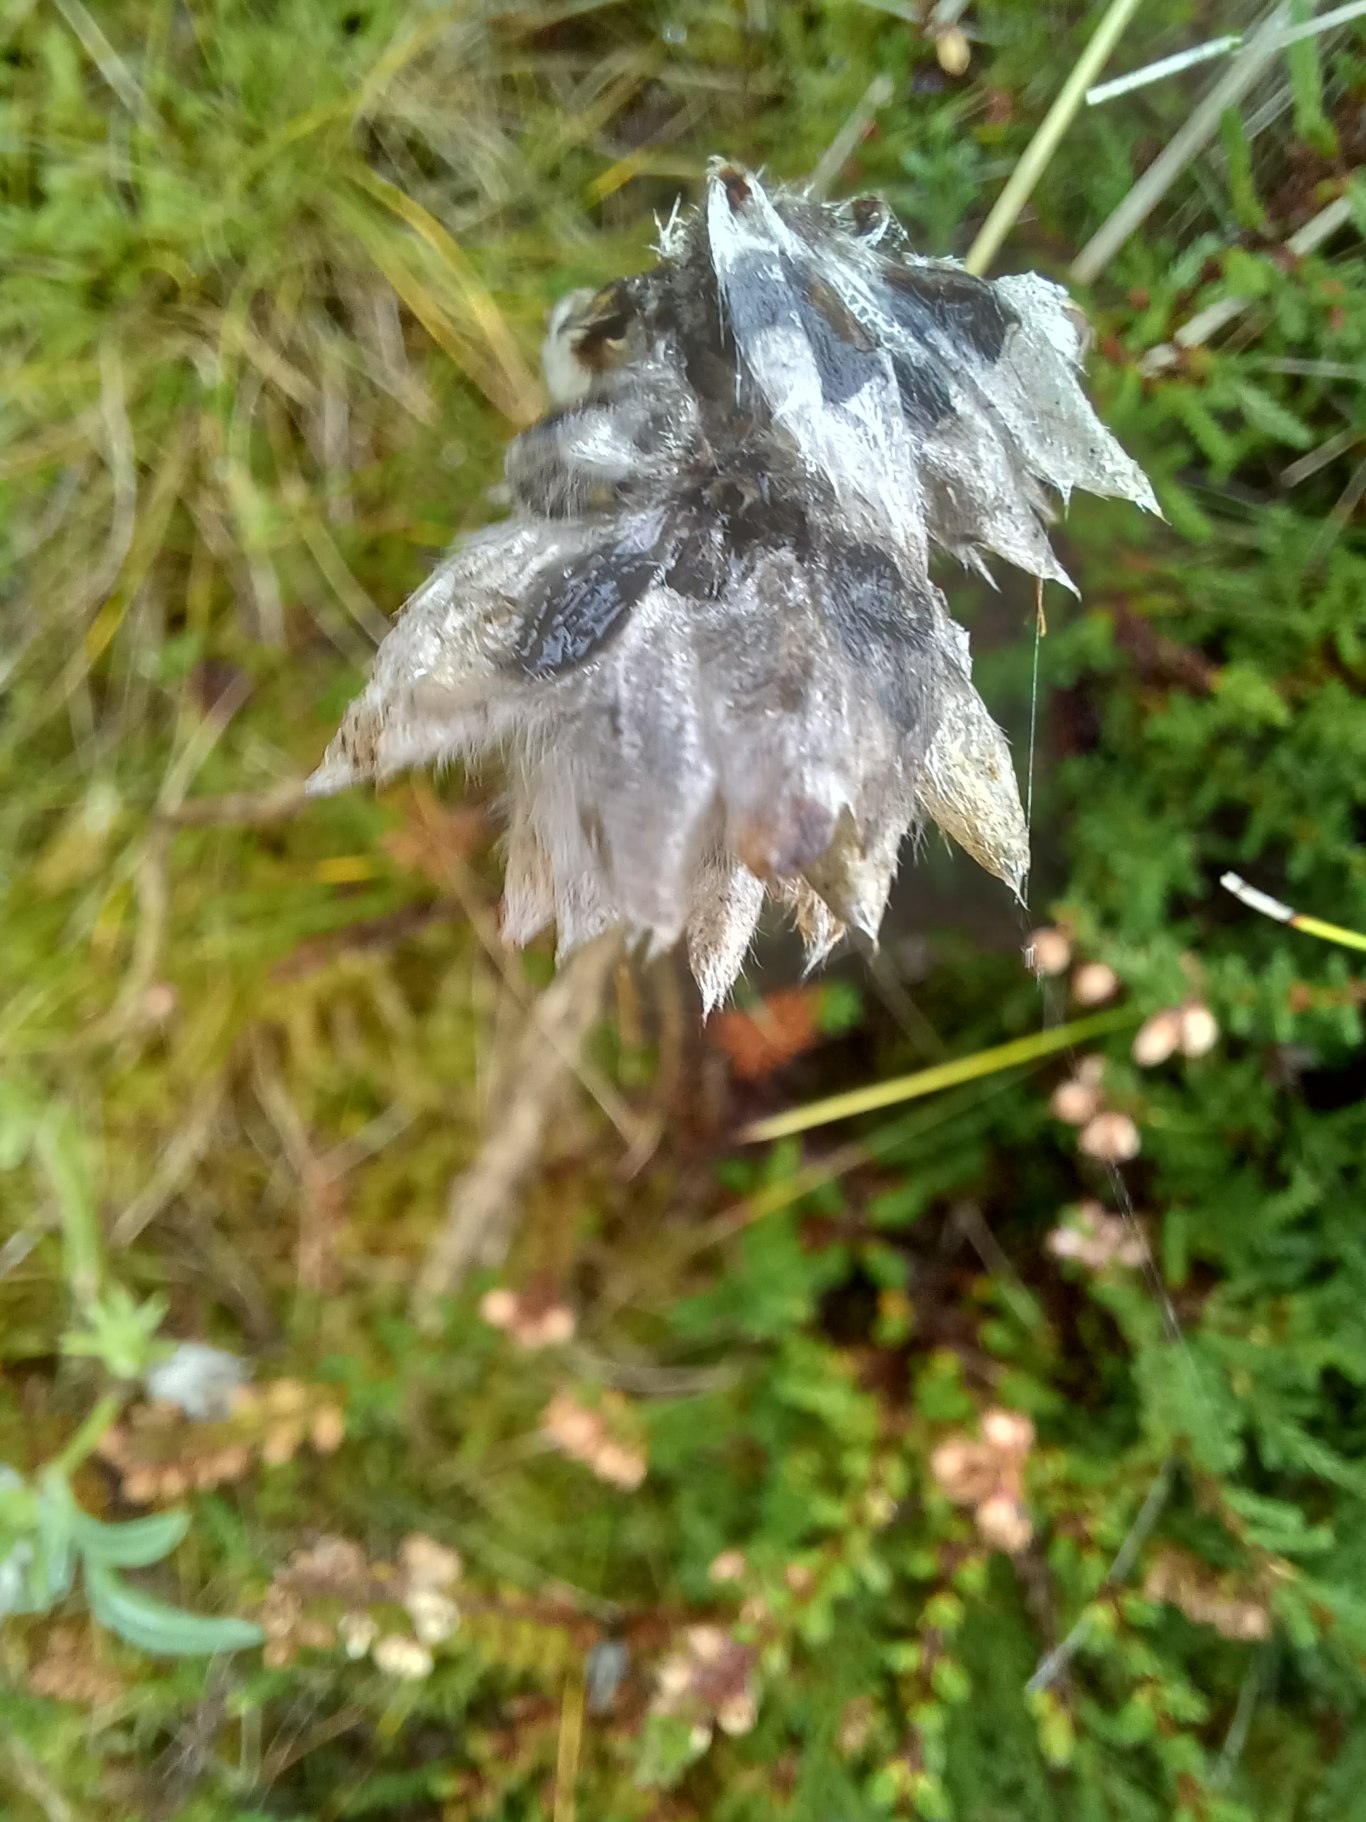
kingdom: Plantae
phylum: Tracheophyta
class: Magnoliopsida
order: Fabales
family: Fabaceae
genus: Anthyllis
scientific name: Anthyllis vulneraria
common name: Rundbælg
